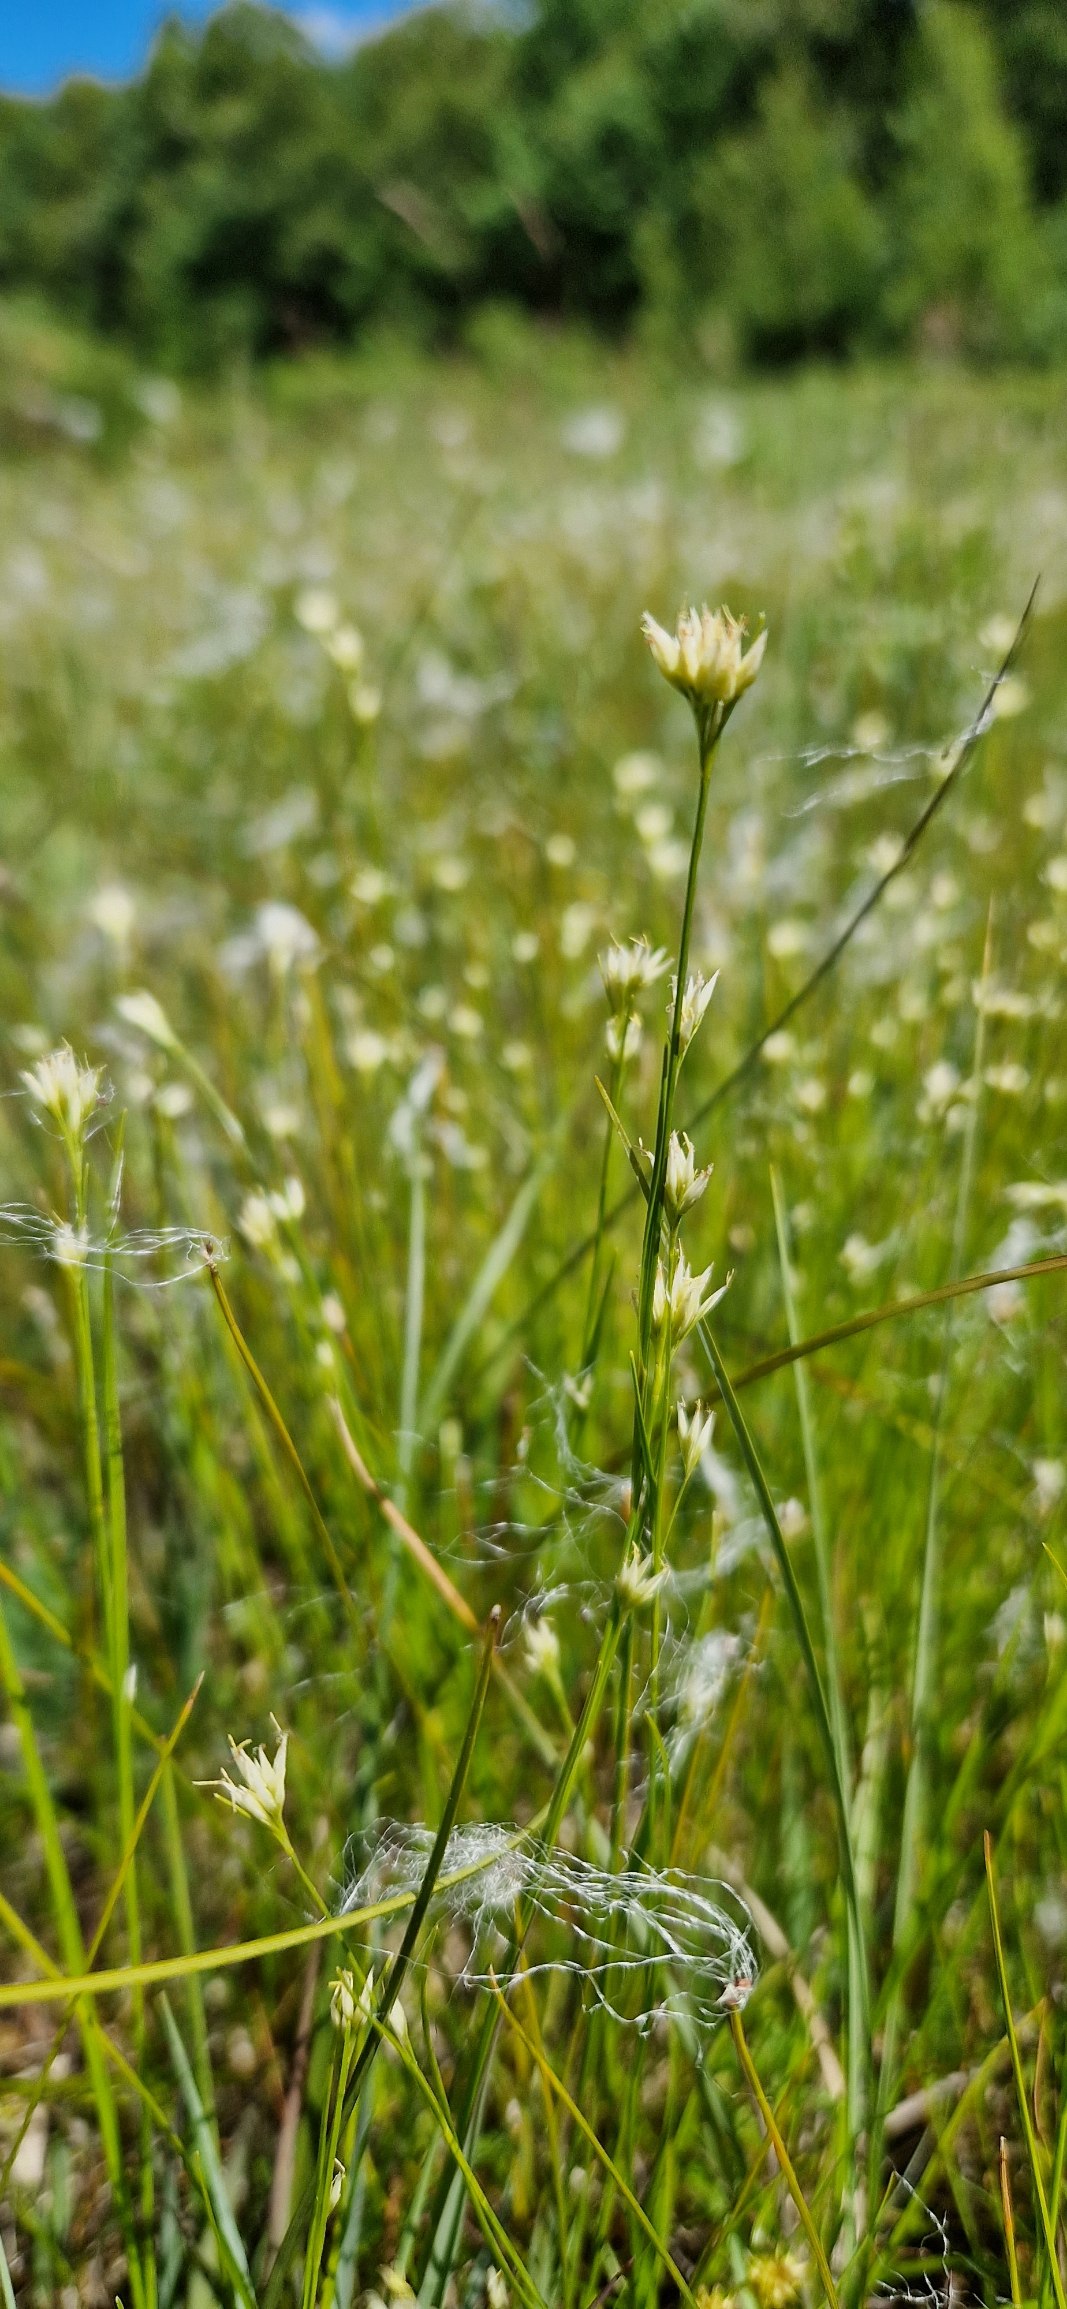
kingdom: Plantae
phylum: Tracheophyta
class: Liliopsida
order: Poales
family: Cyperaceae
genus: Rhynchospora
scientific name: Rhynchospora alba
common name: Hvid næbfrø
